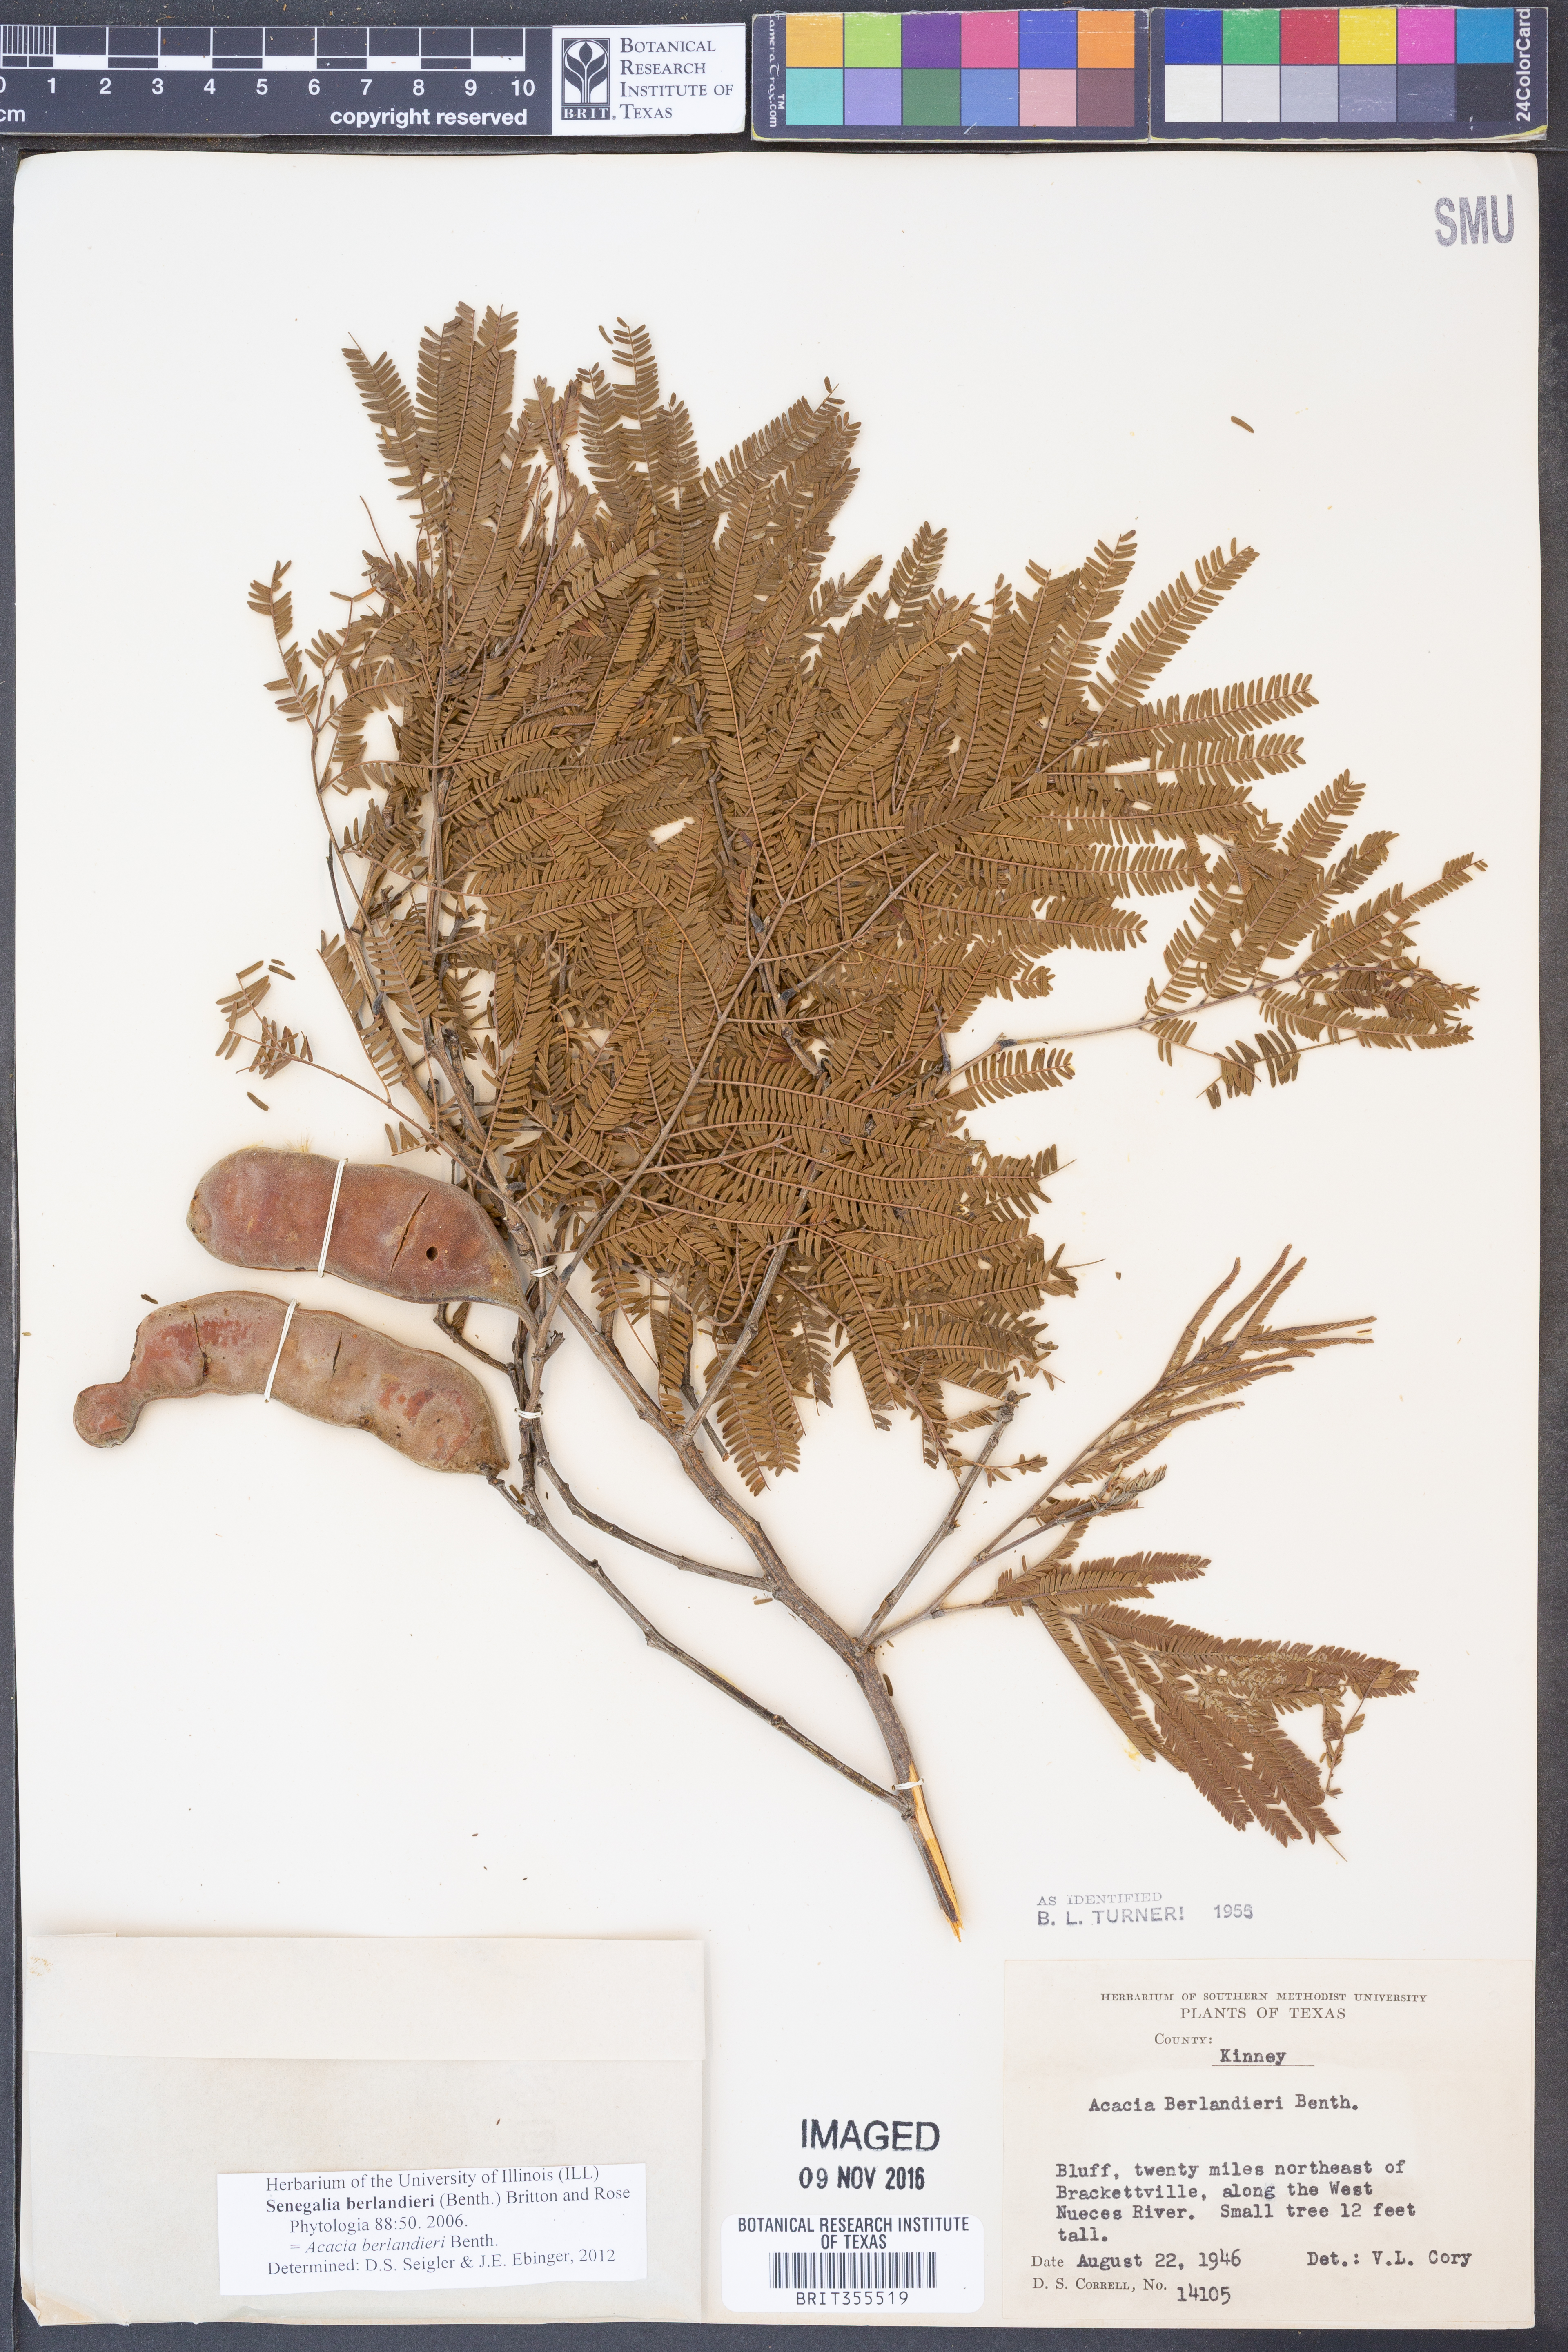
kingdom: Plantae
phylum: Tracheophyta
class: Magnoliopsida
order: Fabales
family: Fabaceae
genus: Senegalia
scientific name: Senegalia berlandieri
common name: Berlandier acacia
